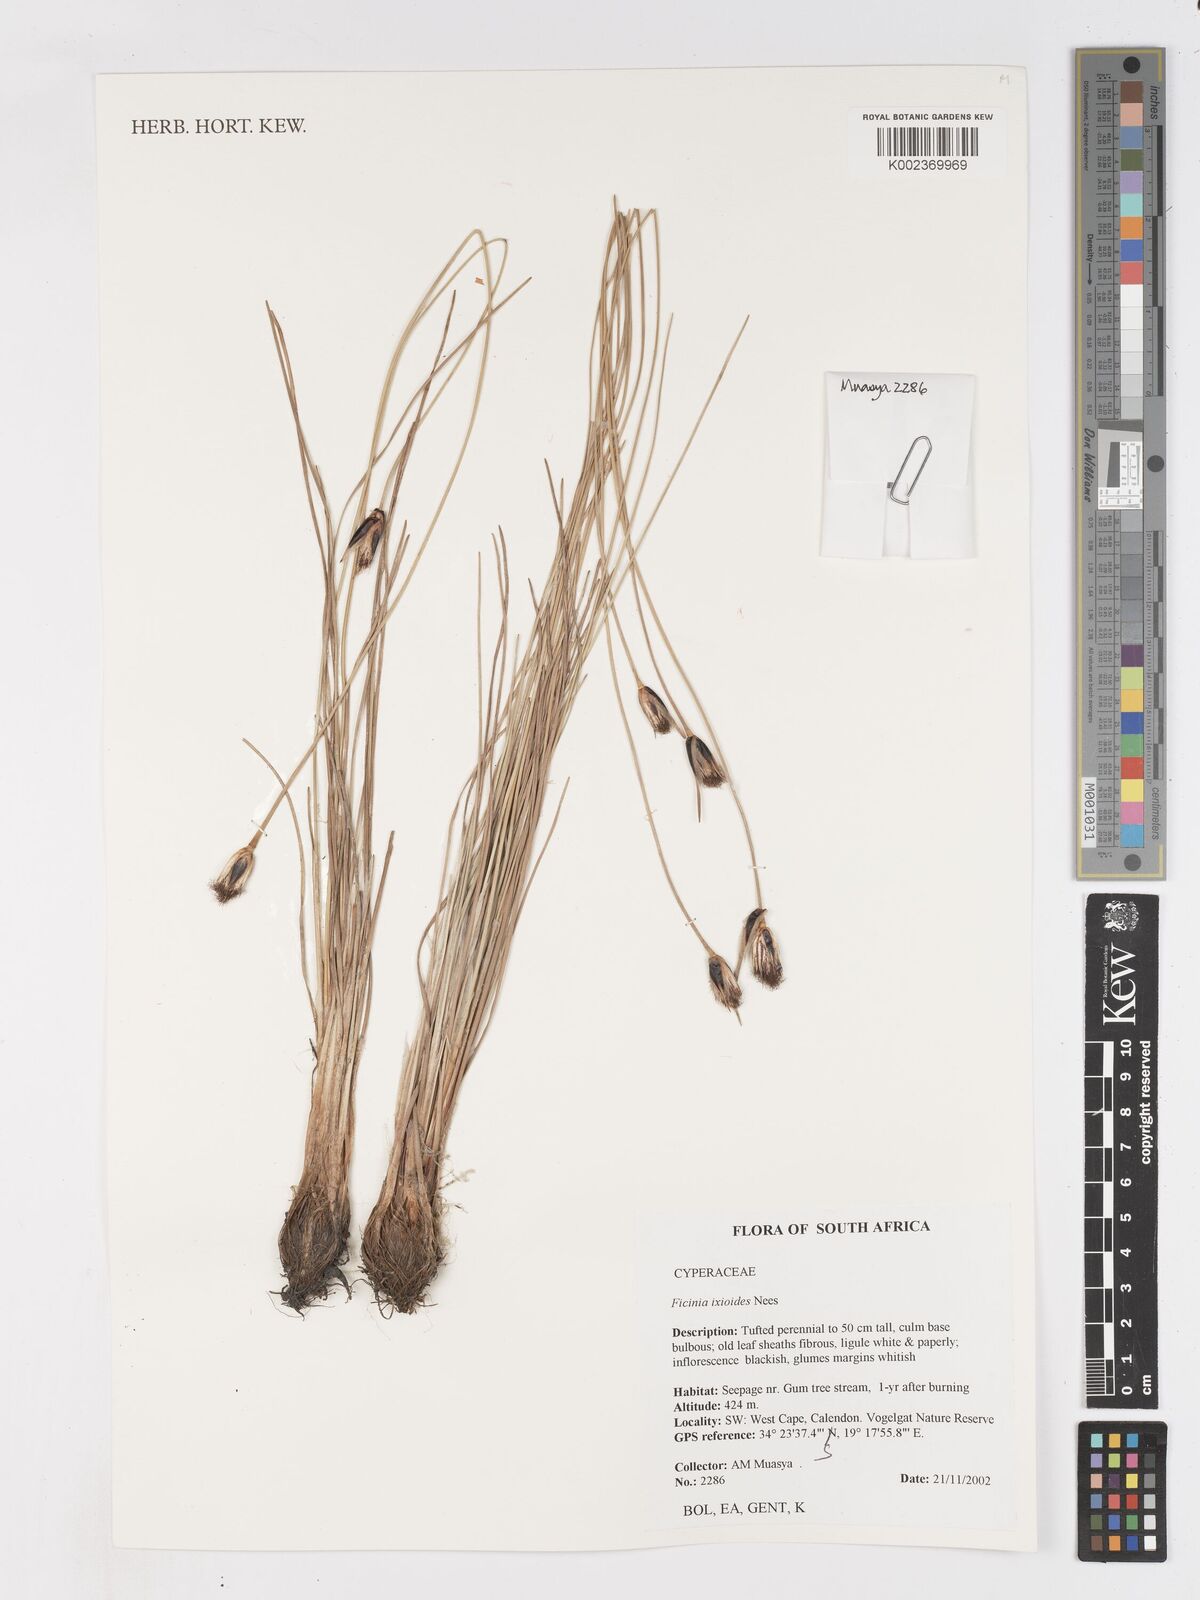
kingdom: Plantae
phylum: Tracheophyta
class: Liliopsida
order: Poales
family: Cyperaceae
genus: Ficinia
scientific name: Ficinia ixioides
